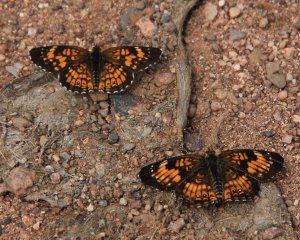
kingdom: Animalia
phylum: Arthropoda
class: Insecta
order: Lepidoptera
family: Nymphalidae
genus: Chlosyne
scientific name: Chlosyne harrisii
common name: Harris's Checkerspot
